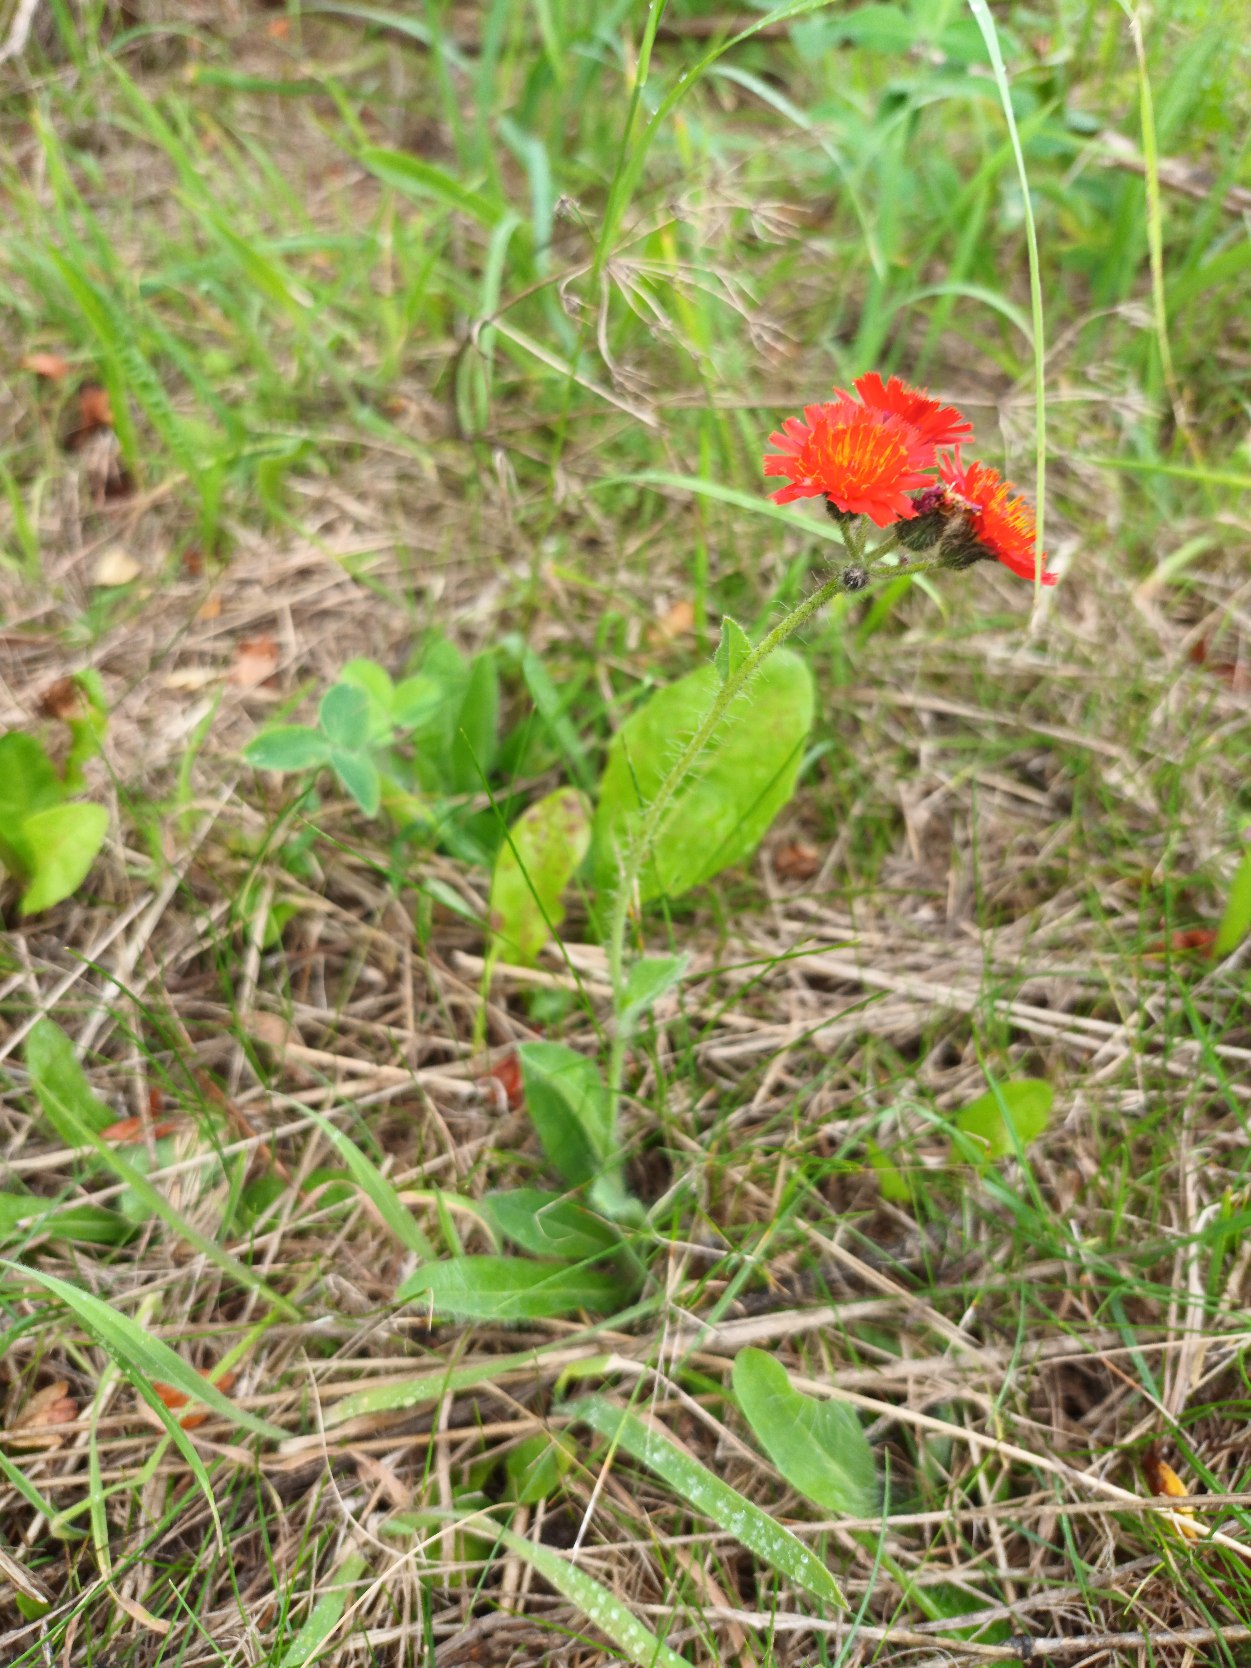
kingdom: Plantae
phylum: Tracheophyta
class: Magnoliopsida
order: Asterales
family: Asteraceae
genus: Pilosella
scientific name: Pilosella aurantiaca
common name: Pomerans-høgeurt
